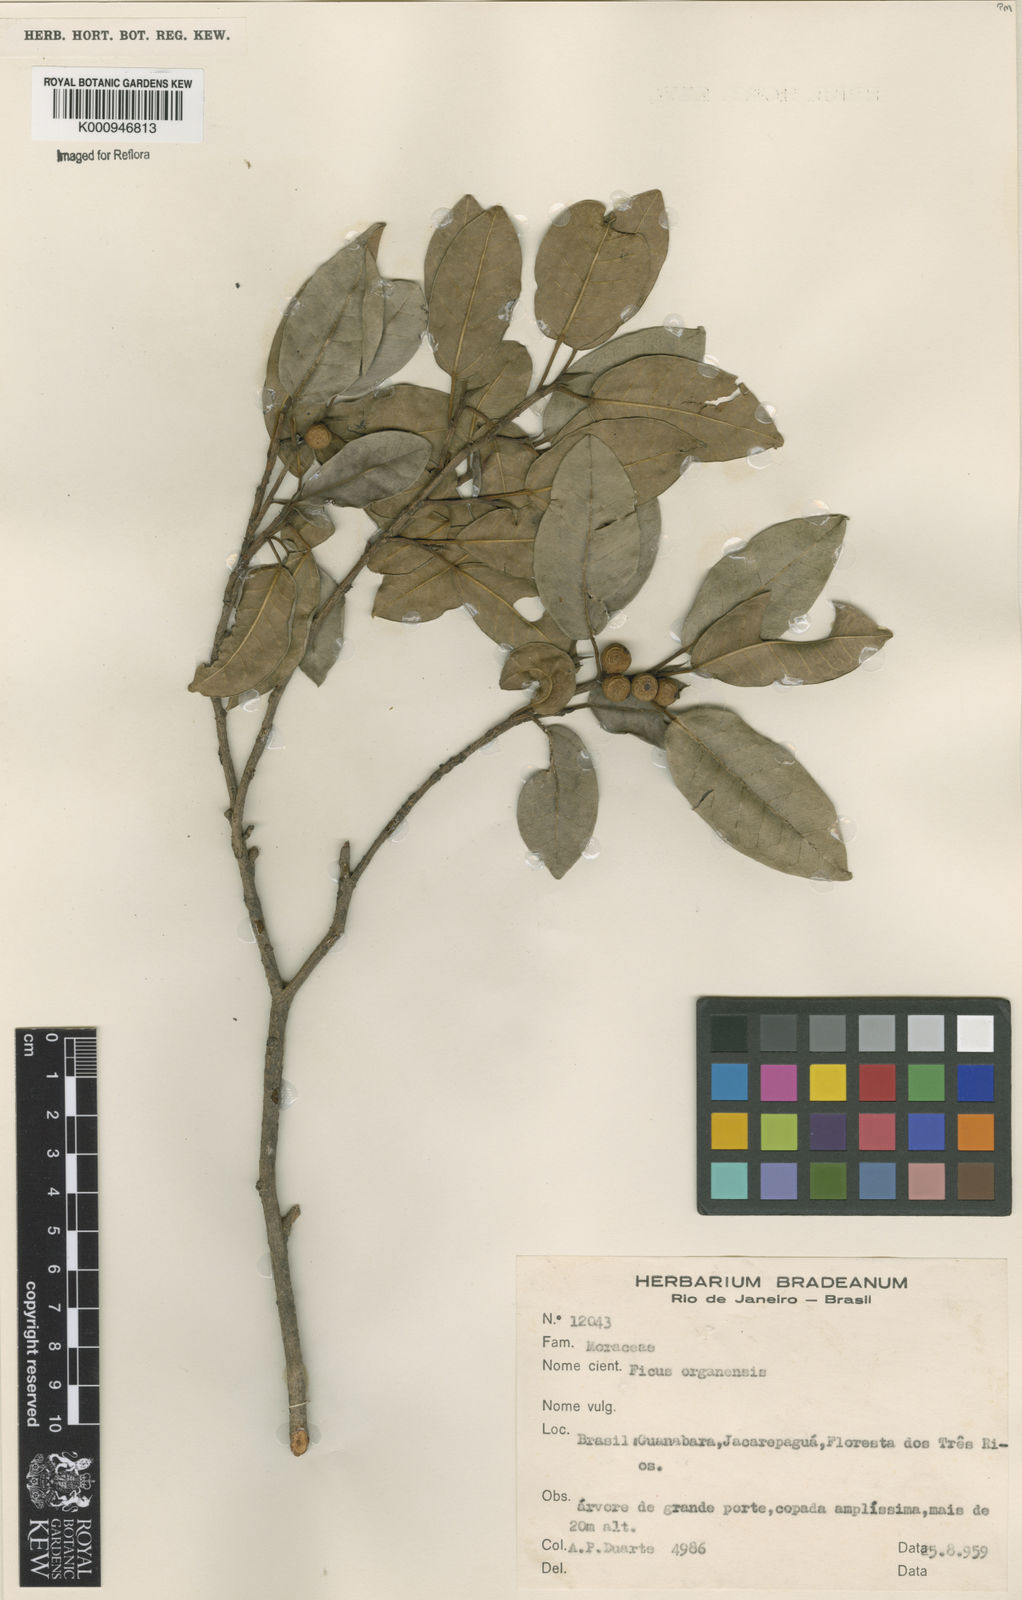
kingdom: Plantae
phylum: Tracheophyta
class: Magnoliopsida
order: Rosales
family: Moraceae
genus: Ficus
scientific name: Ficus organensis
